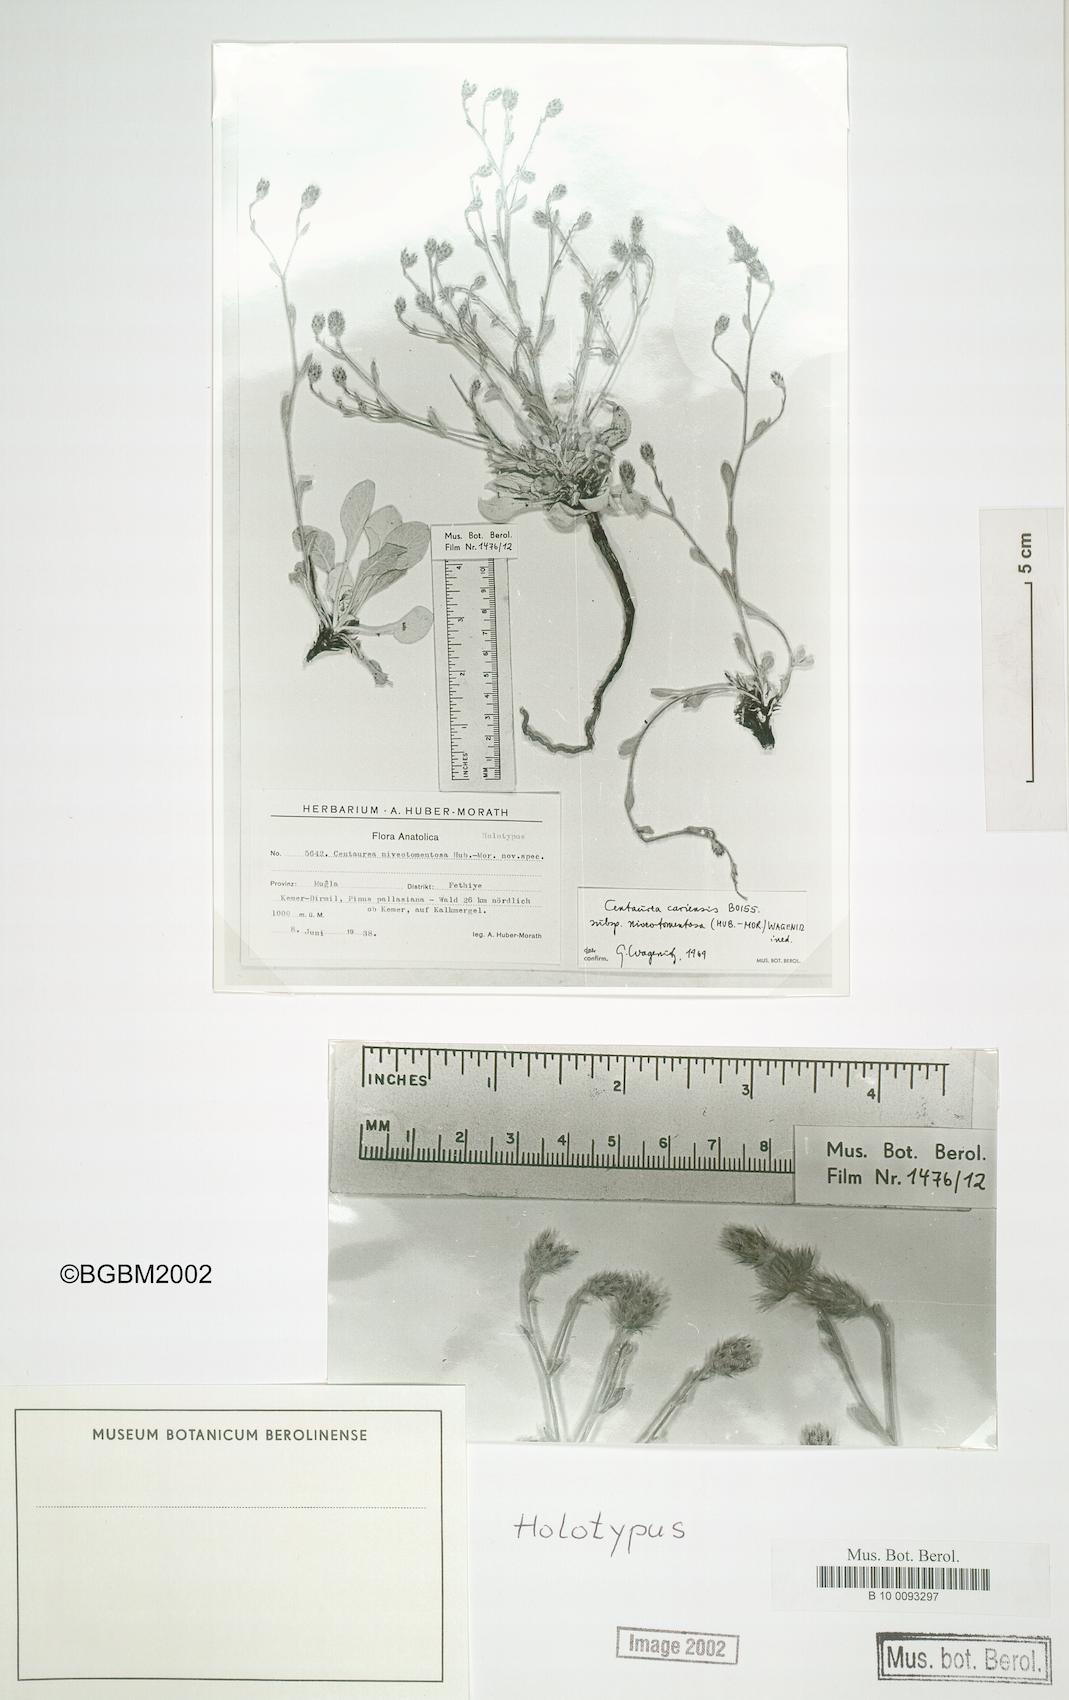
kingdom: Plantae
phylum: Tracheophyta
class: Magnoliopsida
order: Asterales
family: Asteraceae
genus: Centaurea
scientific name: Centaurea cariensis
